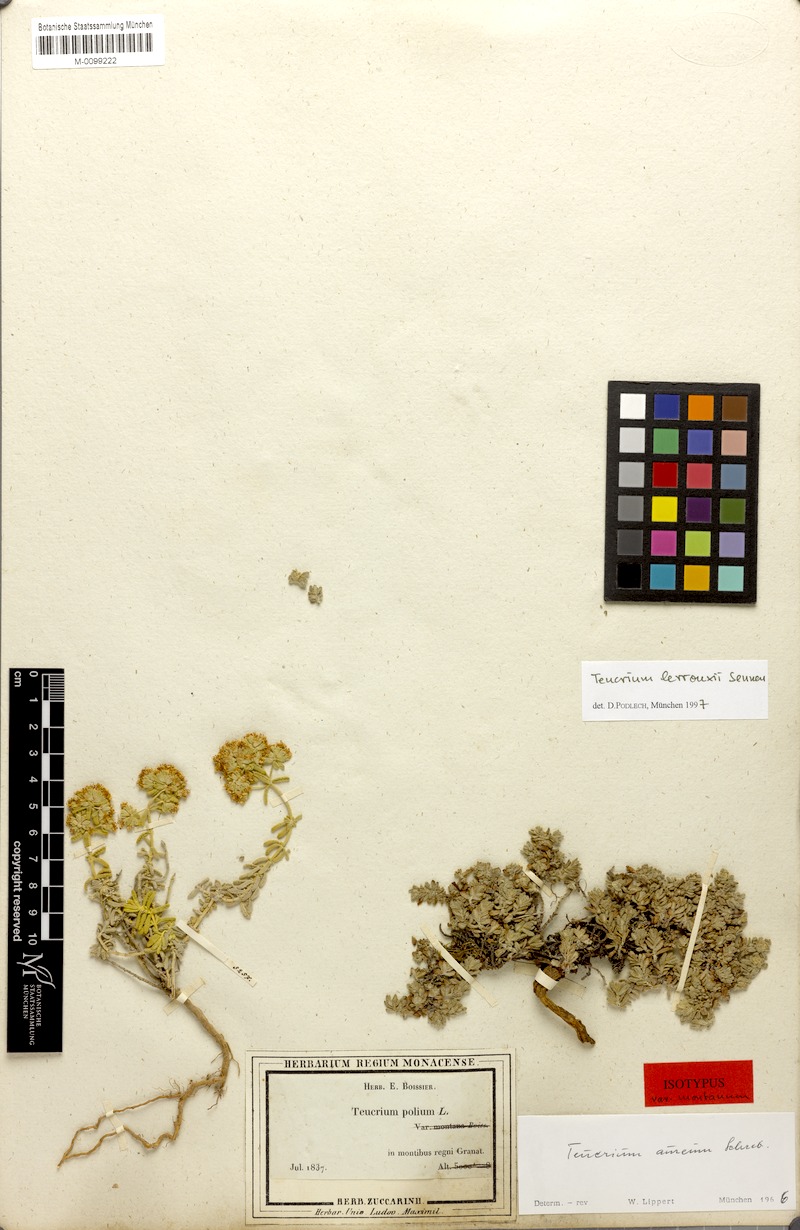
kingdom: Plantae
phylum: Tracheophyta
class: Magnoliopsida
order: Lamiales
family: Lamiaceae
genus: Teucrium
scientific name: Teucrium aureum
